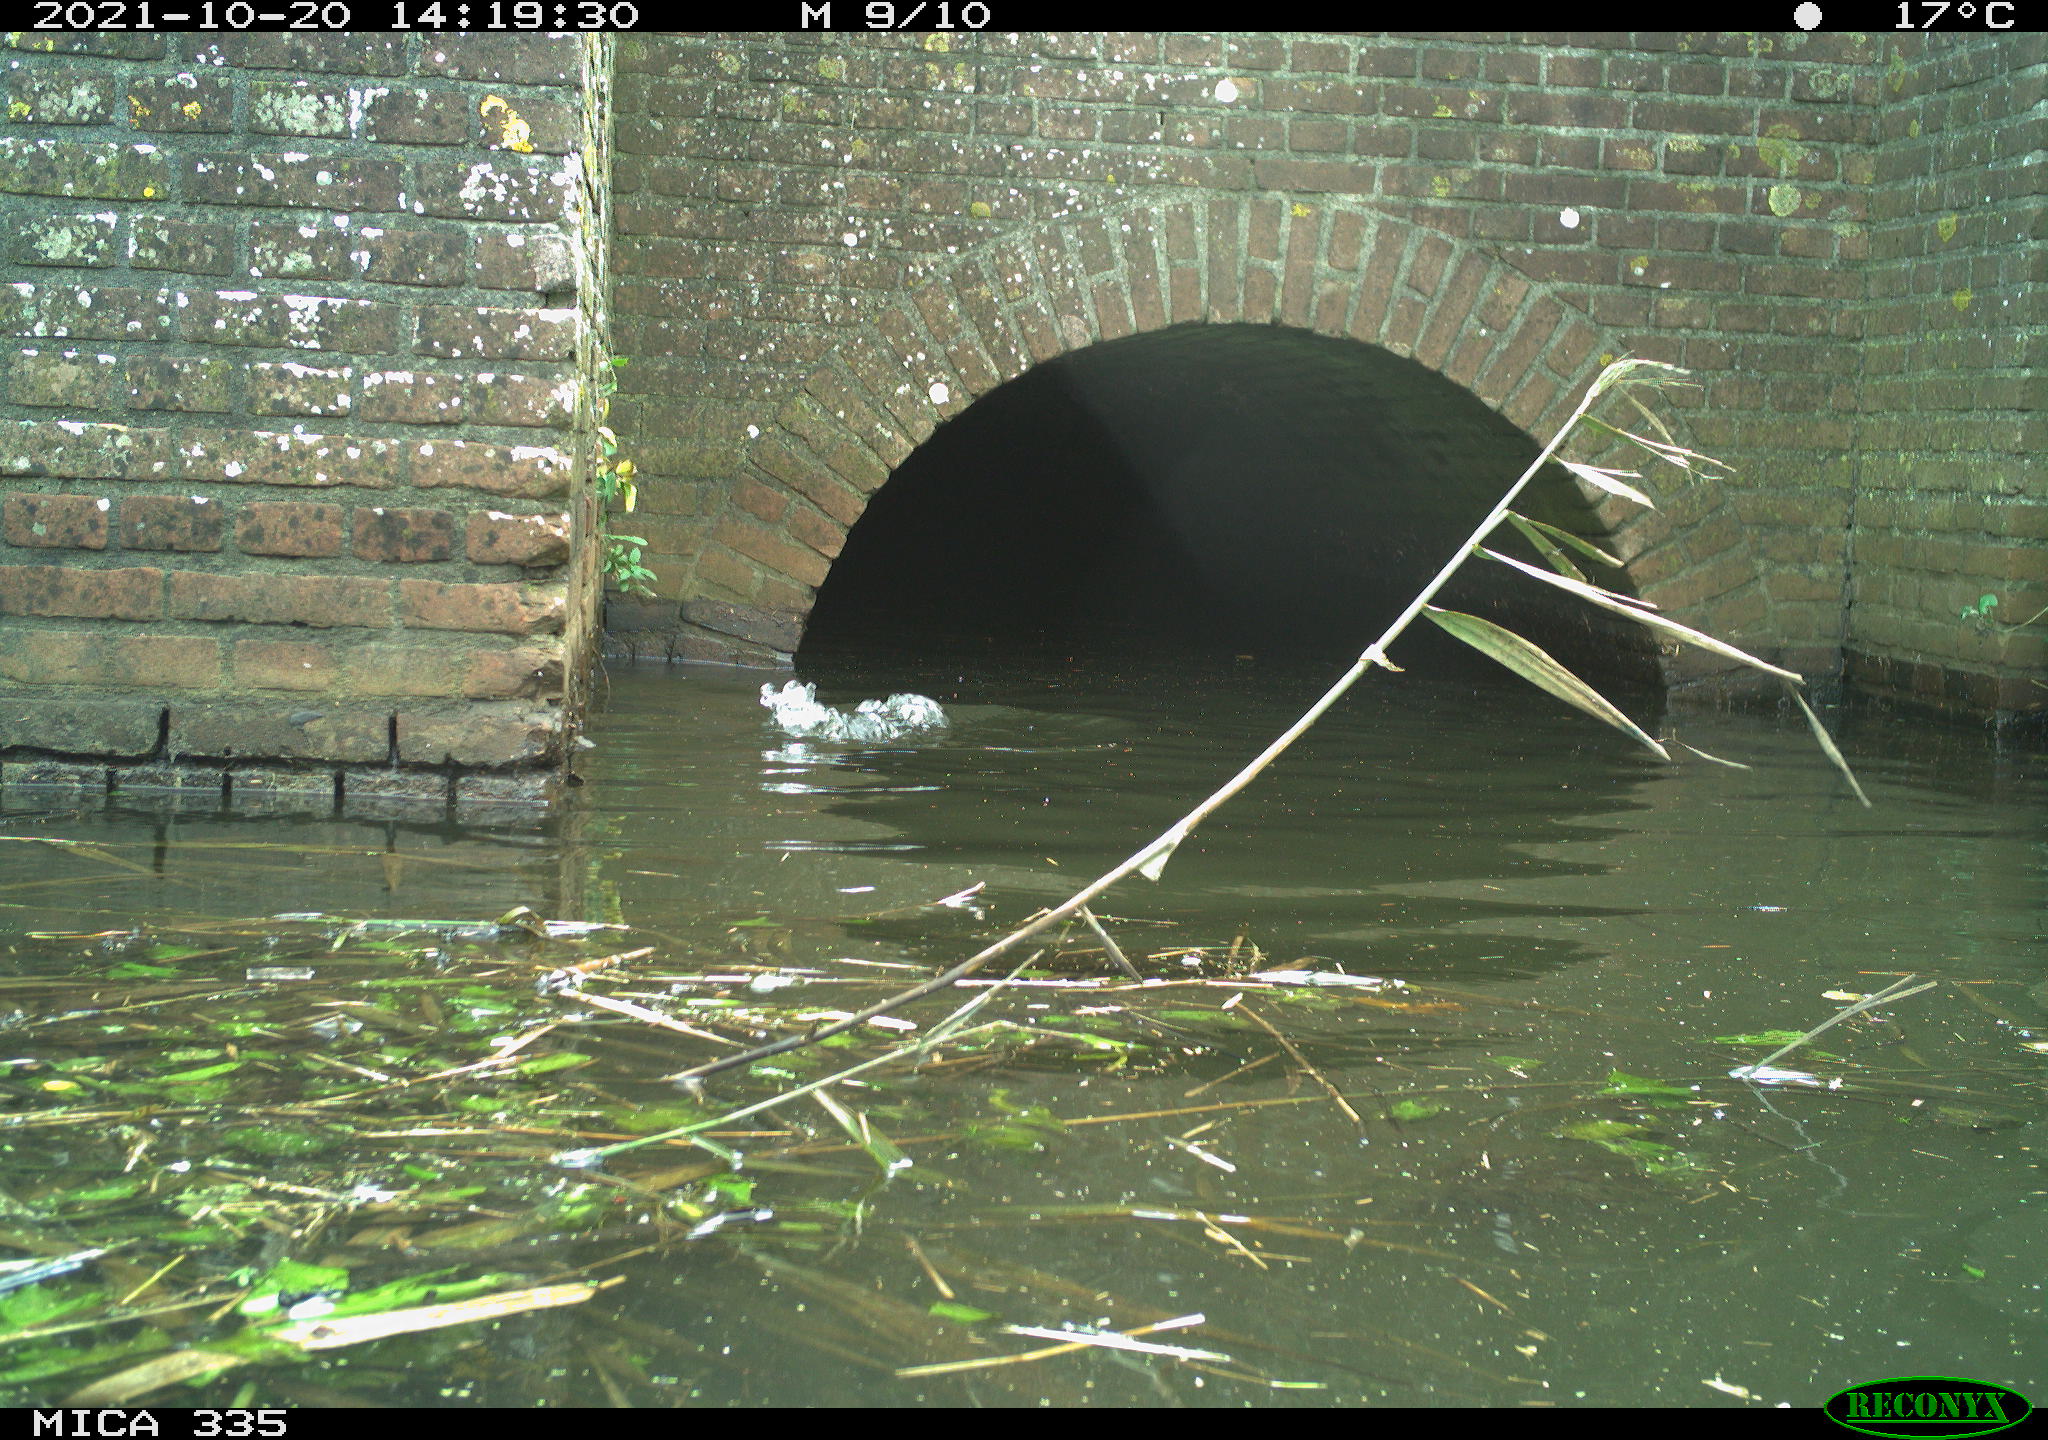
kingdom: Animalia
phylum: Chordata
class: Aves
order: Gruiformes
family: Rallidae
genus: Gallinula
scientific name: Gallinula chloropus
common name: Common moorhen
